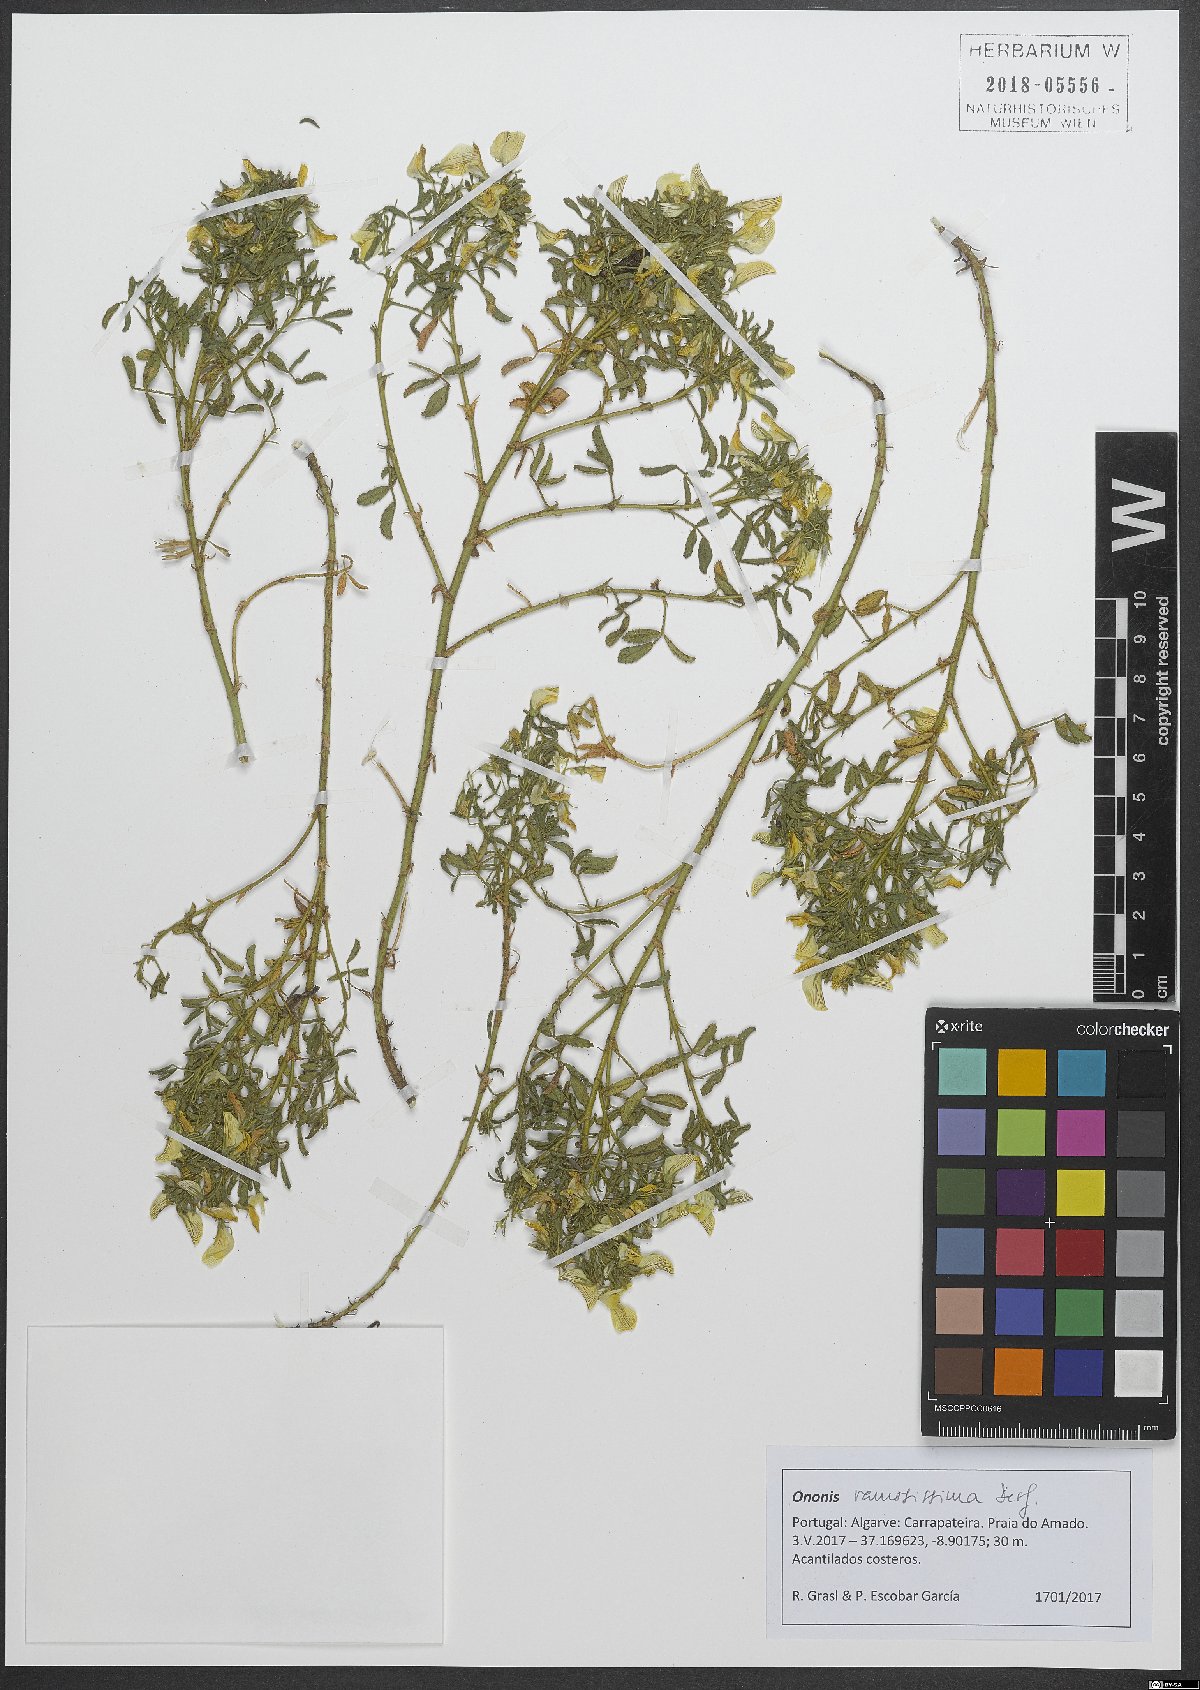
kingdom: Plantae
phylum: Tracheophyta
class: Magnoliopsida
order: Fabales
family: Fabaceae
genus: Ononis
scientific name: Ononis ramosissima
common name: Bush restharrow
